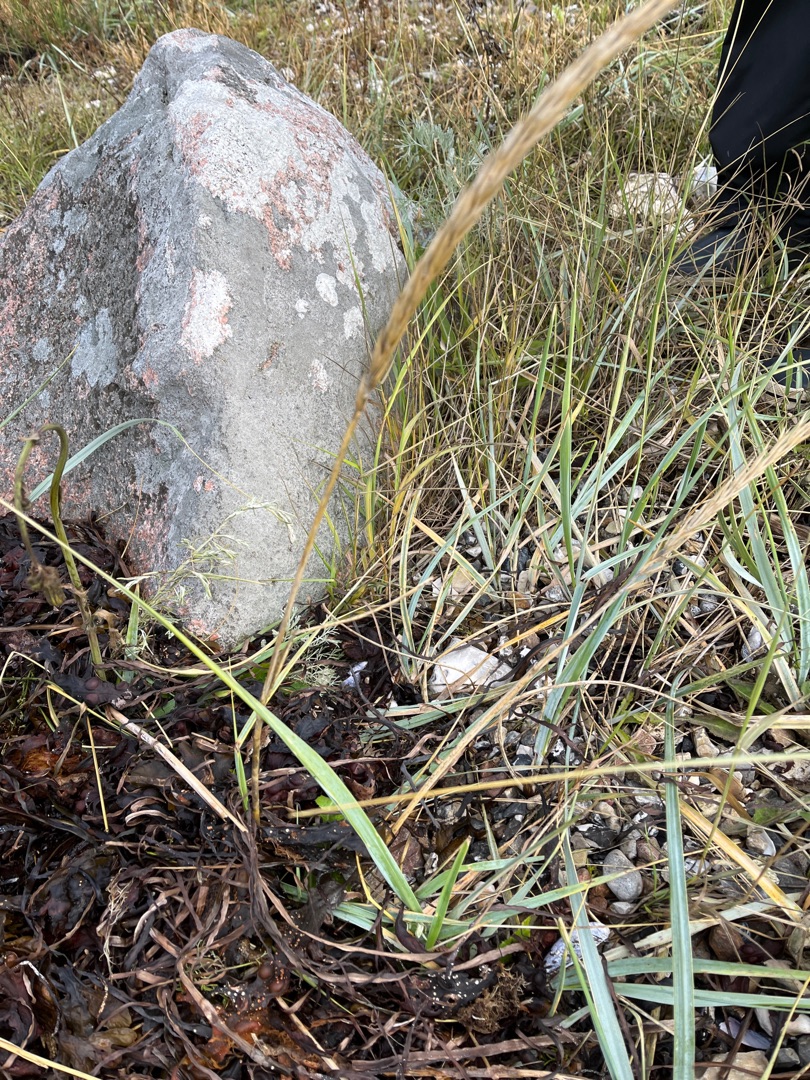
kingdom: Plantae
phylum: Tracheophyta
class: Liliopsida
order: Poales
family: Poaceae
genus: Leymus
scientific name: Leymus arenarius
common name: Marehalm
